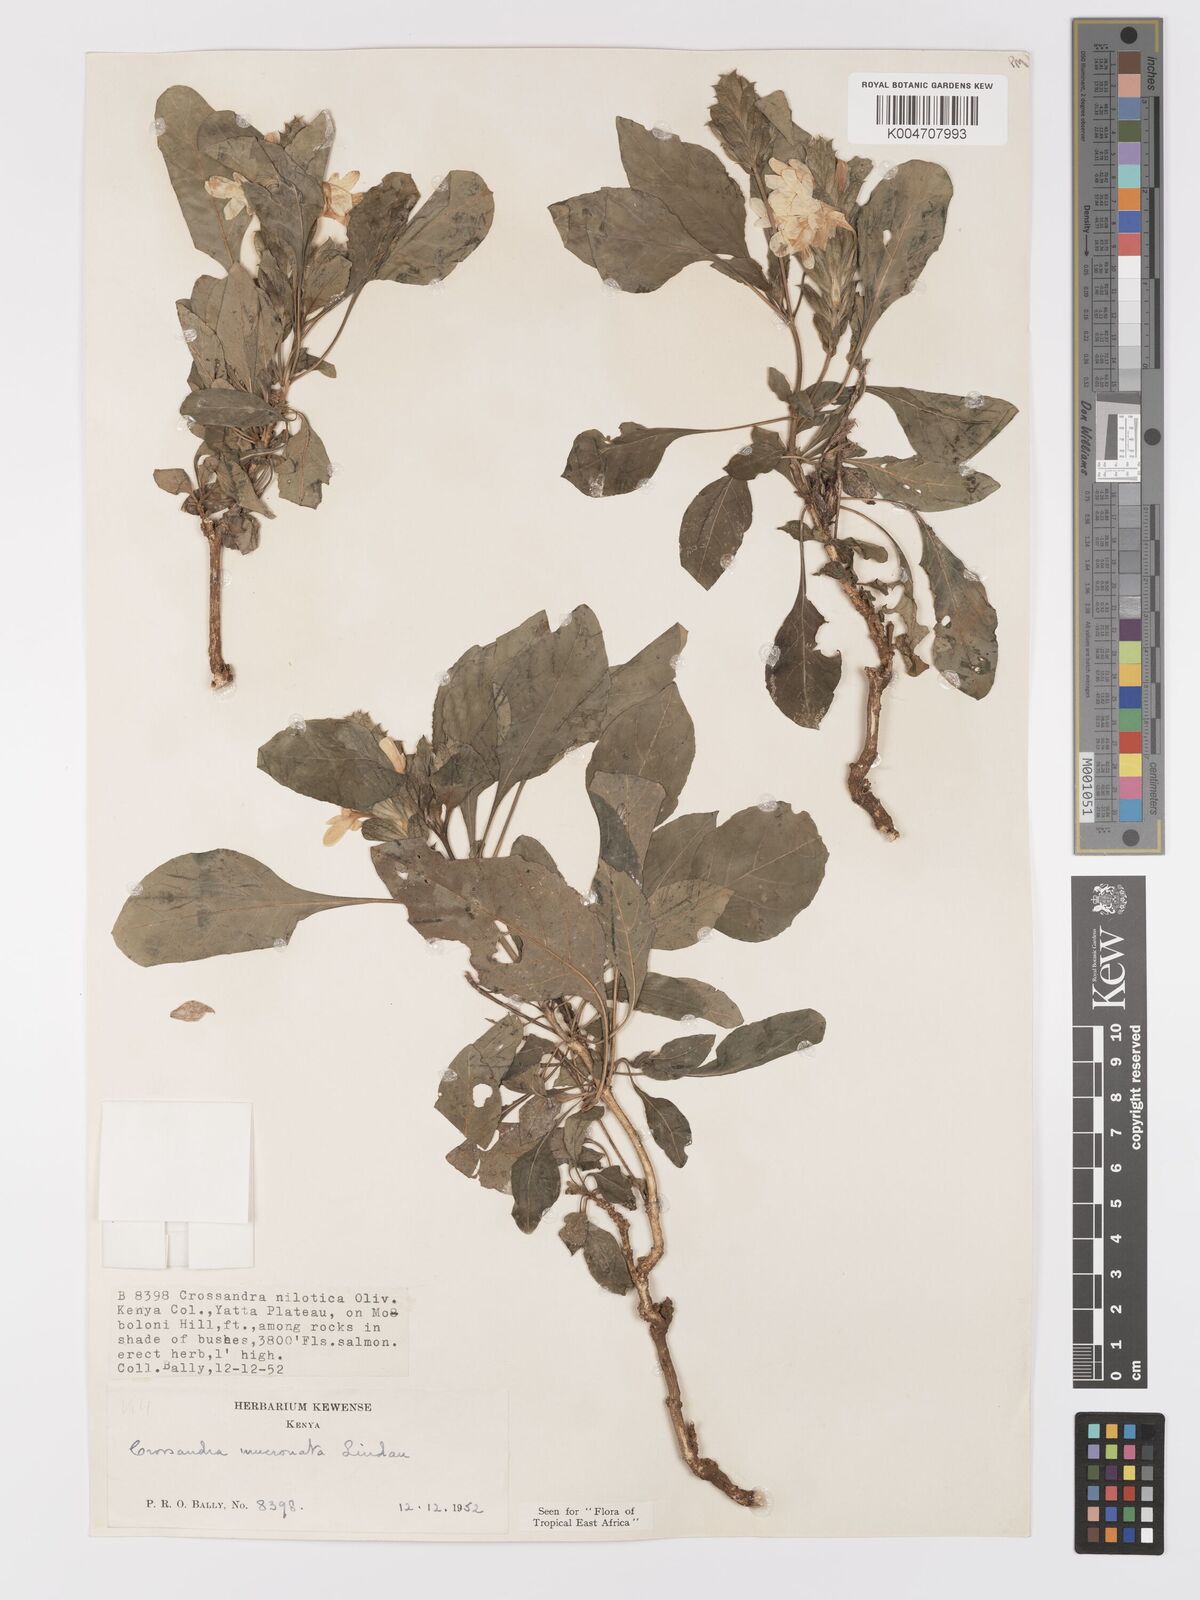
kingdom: Plantae
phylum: Tracheophyta
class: Magnoliopsida
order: Lamiales
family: Acanthaceae
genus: Crossandra
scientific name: Crossandra mucronata
